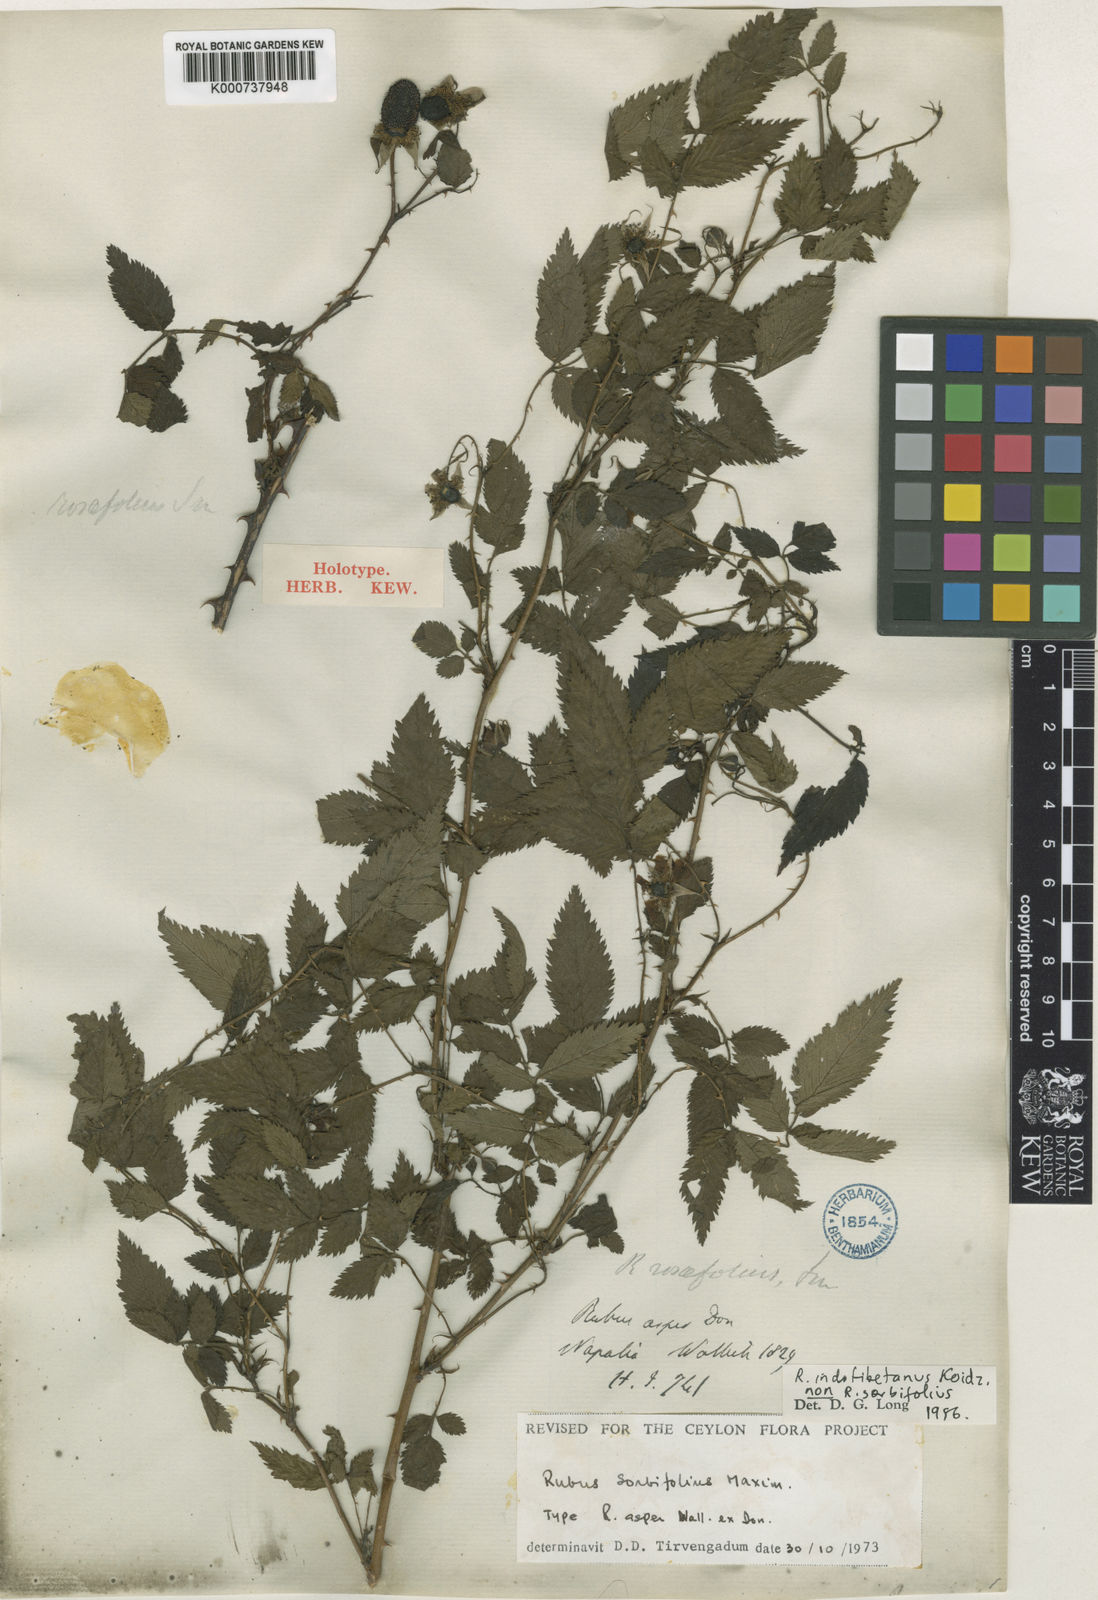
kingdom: Plantae
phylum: Tracheophyta
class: Magnoliopsida
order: Rosales
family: Rosaceae
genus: Rubus
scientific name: Rubus sumatranus
